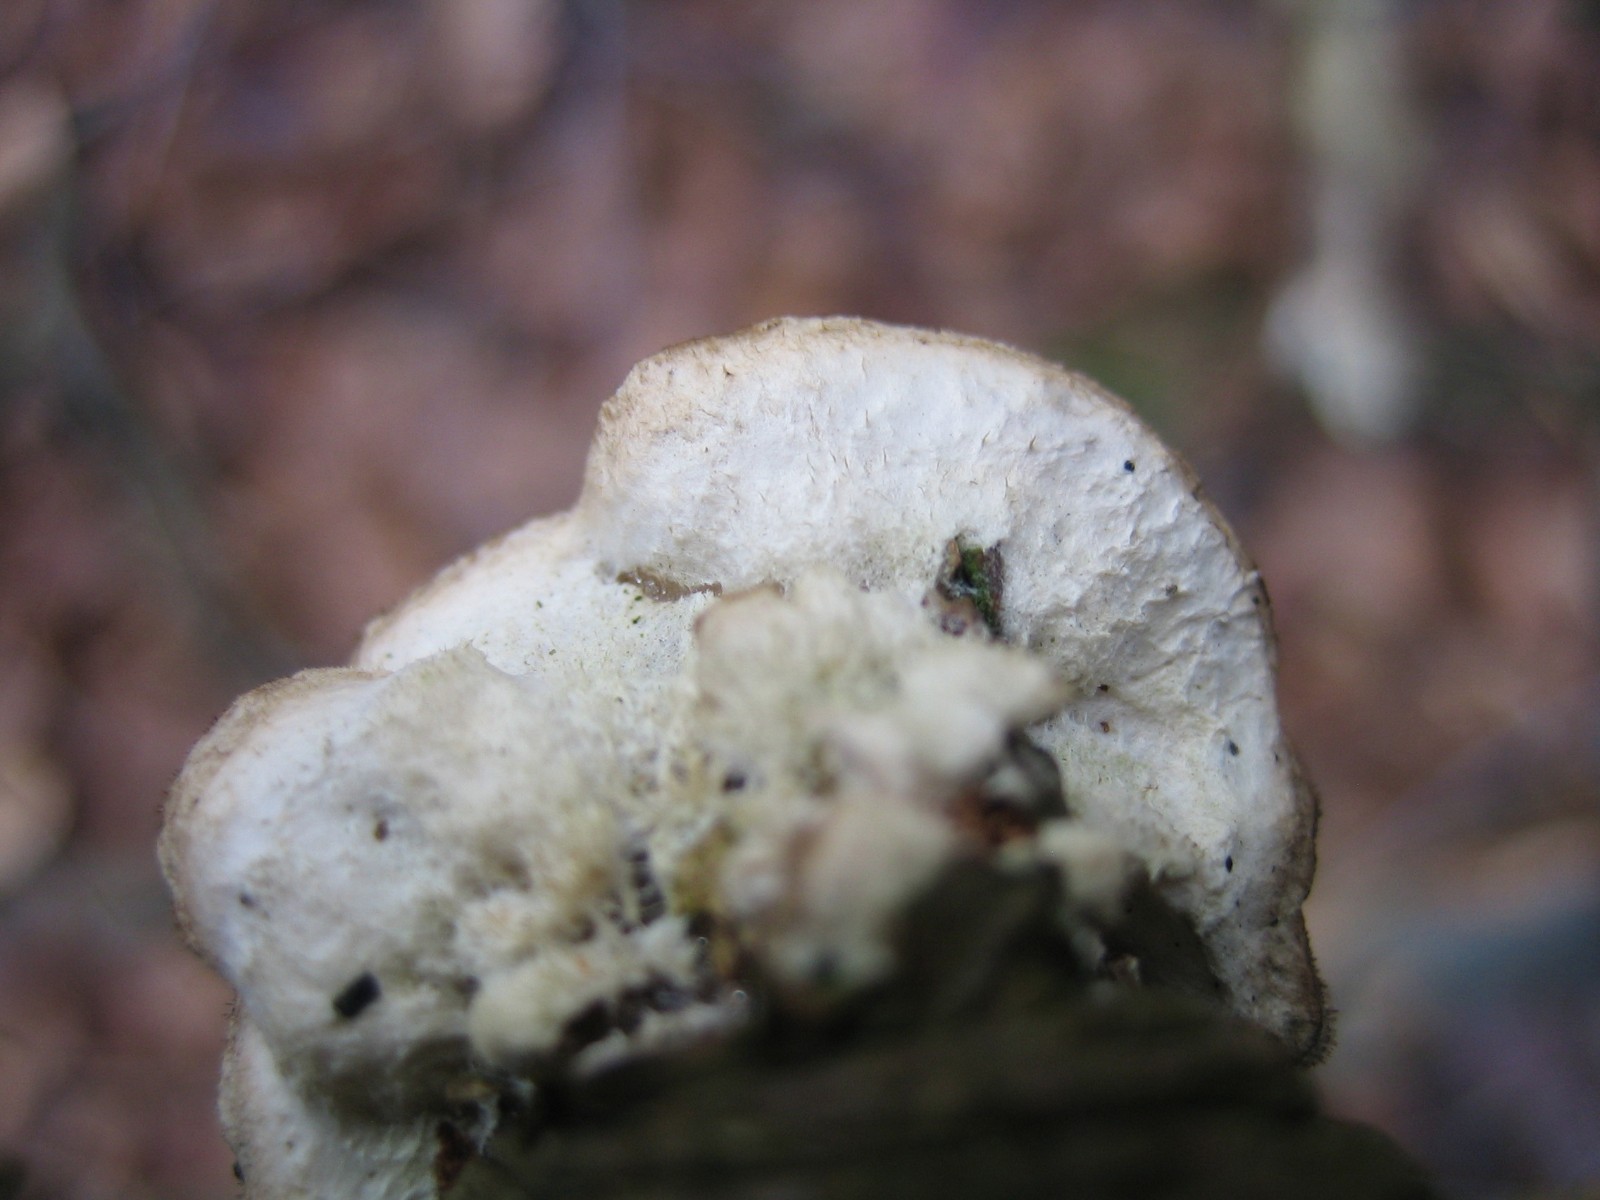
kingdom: Fungi
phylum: Basidiomycota
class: Agaricomycetes
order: Polyporales
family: Phanerochaetaceae
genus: Bjerkandera
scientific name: Bjerkandera adusta
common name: sveden sodporesvamp
